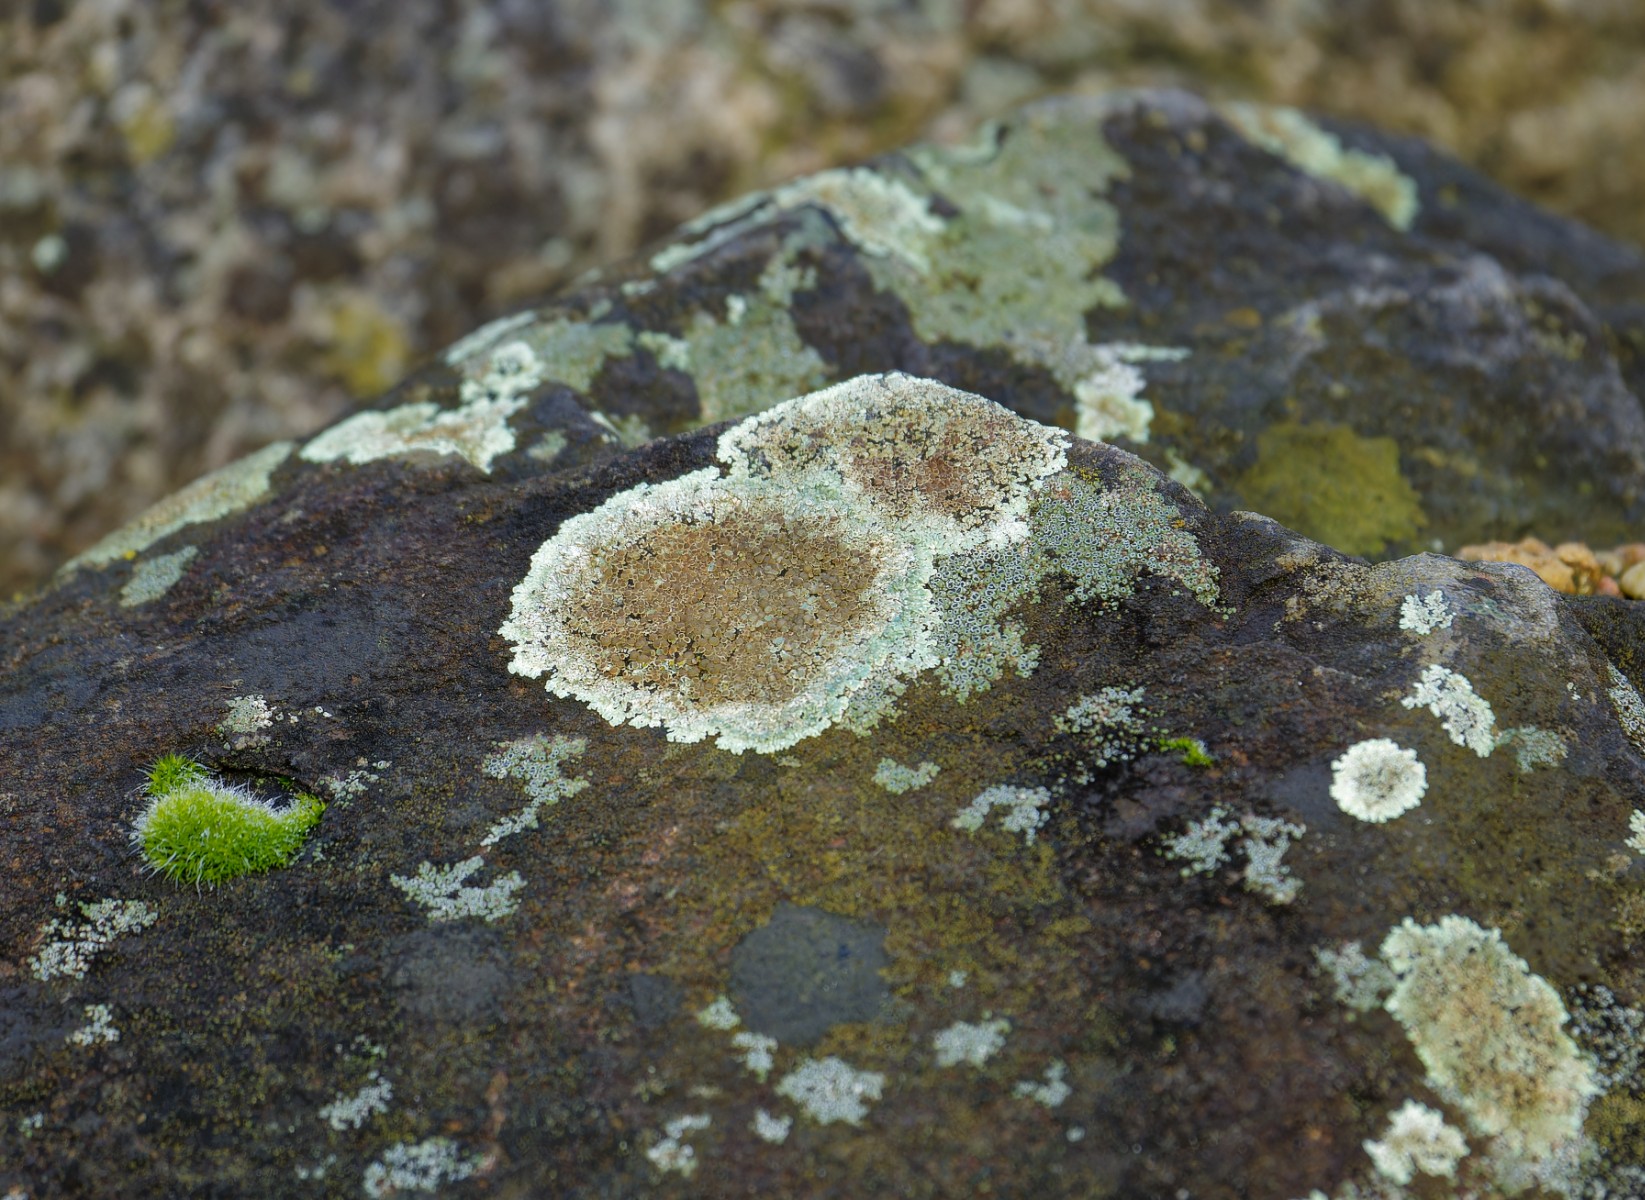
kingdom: Fungi
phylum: Ascomycota
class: Lecanoromycetes
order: Lecanorales
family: Lecanoraceae
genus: Protoparmeliopsis
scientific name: Protoparmeliopsis muralis
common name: randfliget kantskivelav
